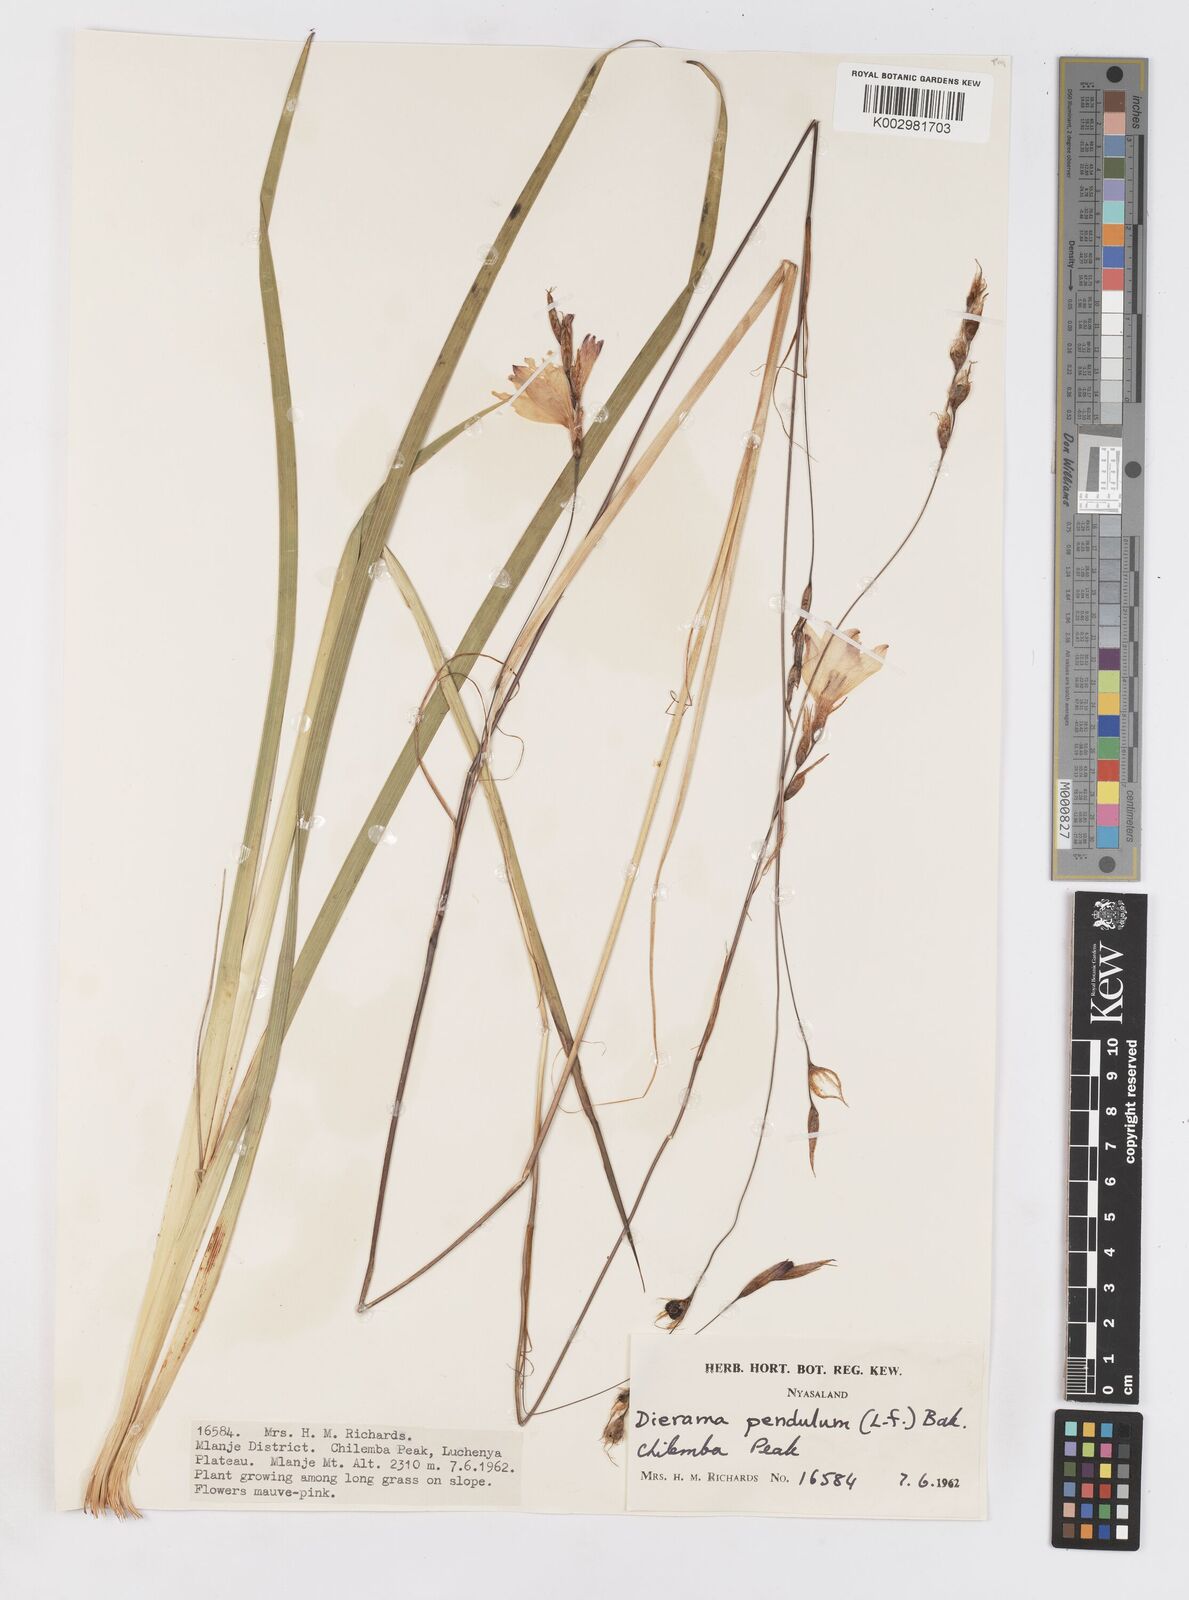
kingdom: Plantae
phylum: Tracheophyta
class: Liliopsida
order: Asparagales
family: Iridaceae
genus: Dierama
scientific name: Dierama cupuliflorum
